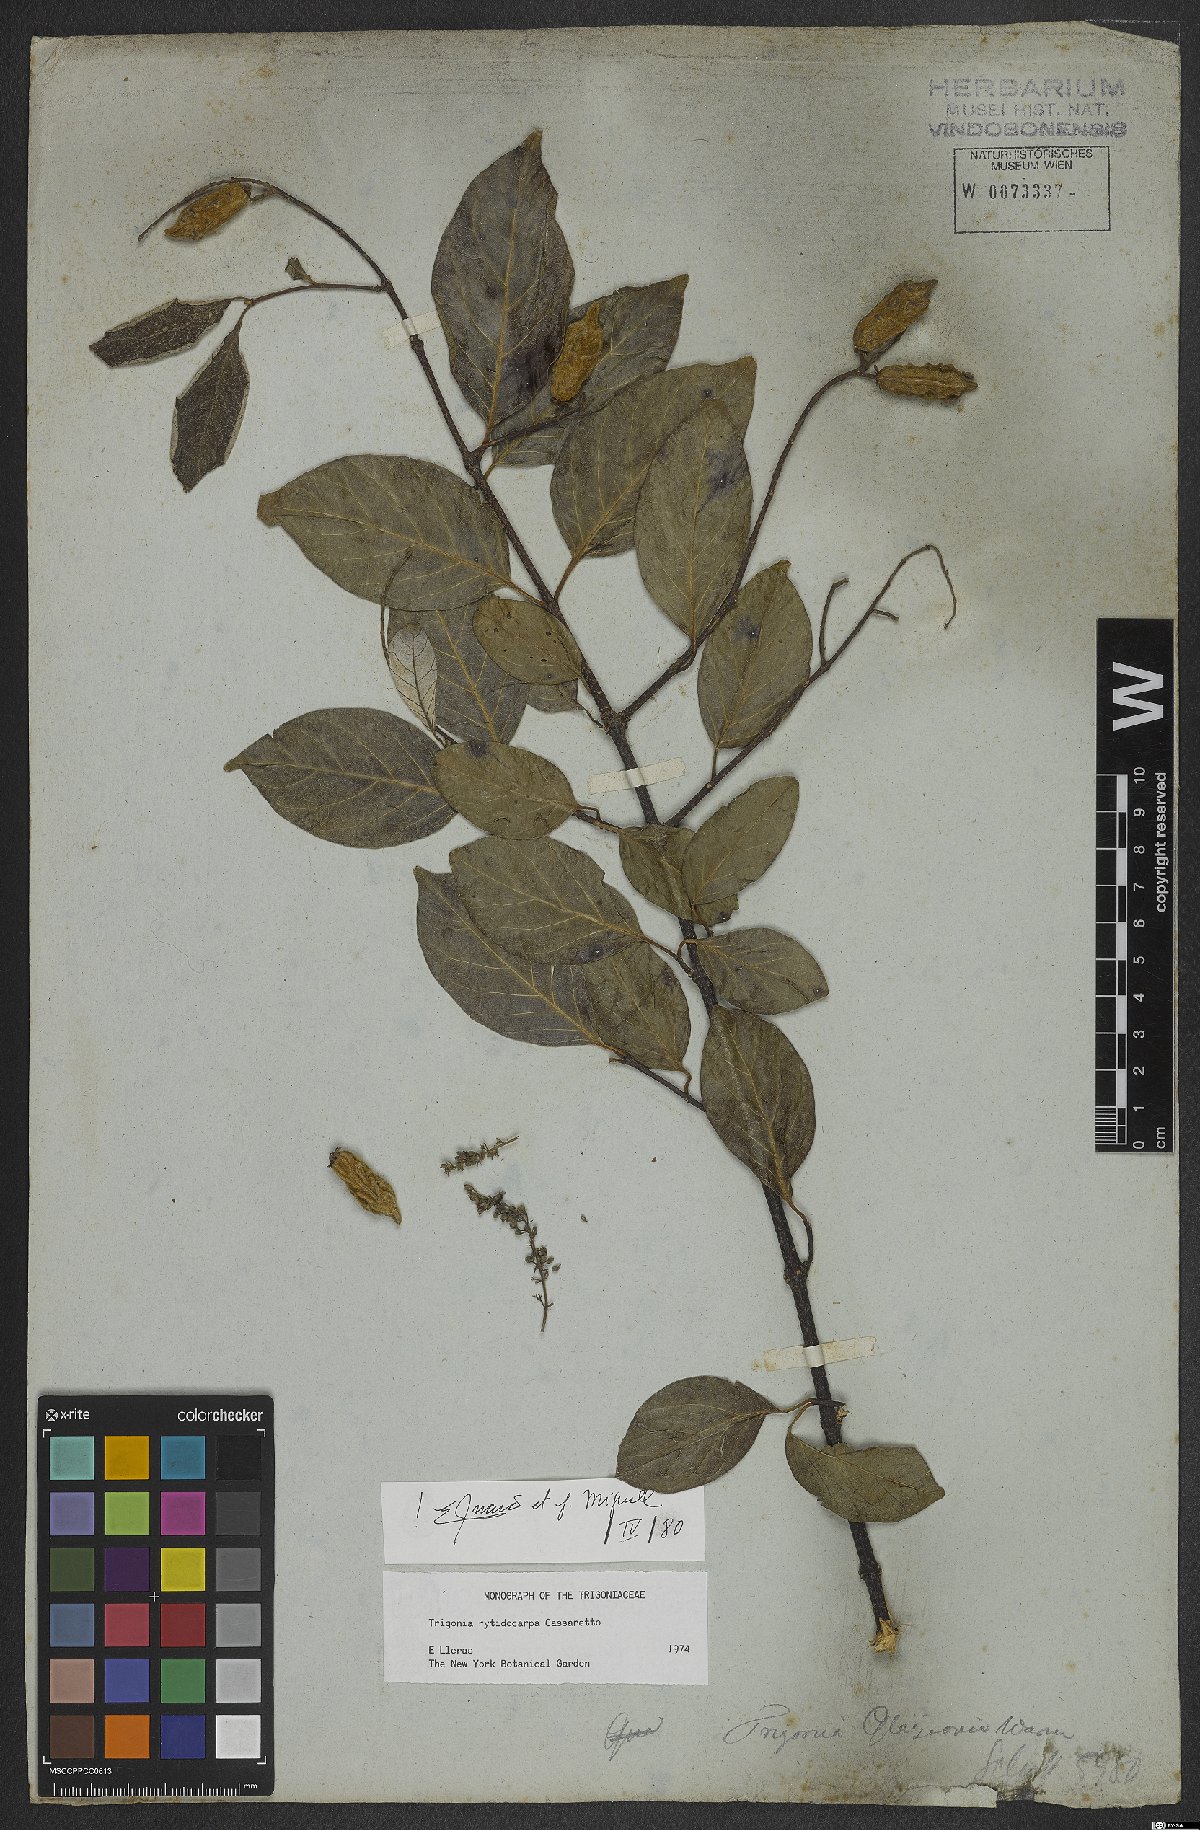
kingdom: Plantae
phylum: Tracheophyta
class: Magnoliopsida
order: Malpighiales
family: Trigoniaceae
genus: Trigonia
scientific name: Trigonia rytidocarpa
